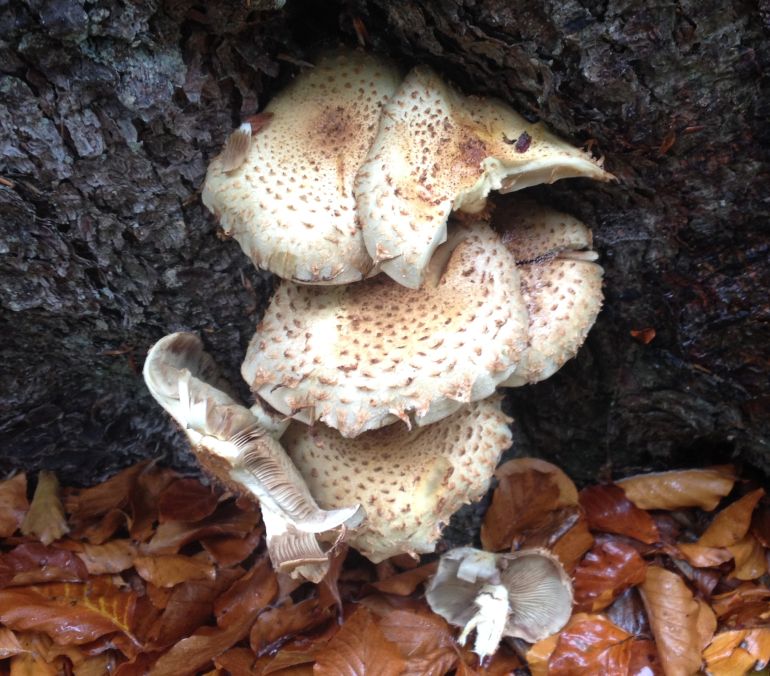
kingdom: Fungi
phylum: Basidiomycota
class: Agaricomycetes
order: Agaricales
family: Strophariaceae
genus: Pholiota
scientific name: Pholiota squarrosa
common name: krumskællet skælhat
